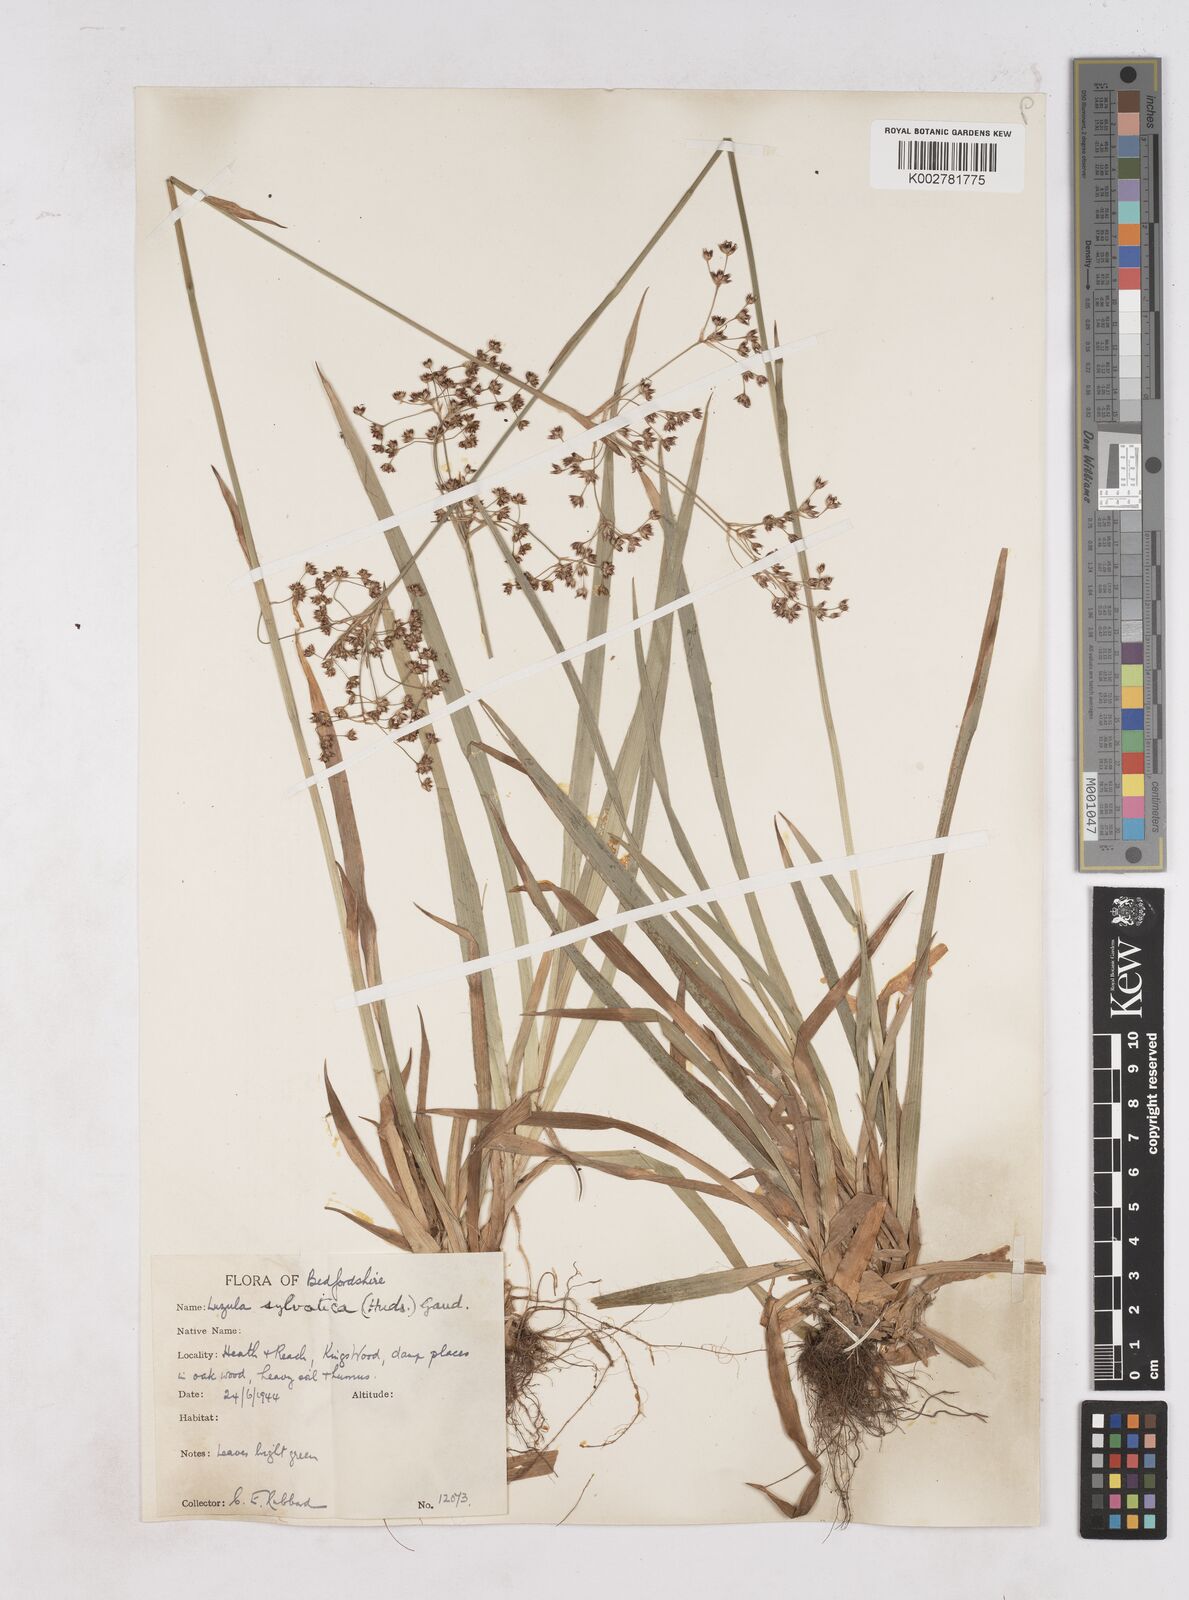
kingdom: Plantae
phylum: Tracheophyta
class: Liliopsida
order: Poales
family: Juncaceae
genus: Luzula
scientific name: Luzula sylvatica
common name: Great wood-rush
